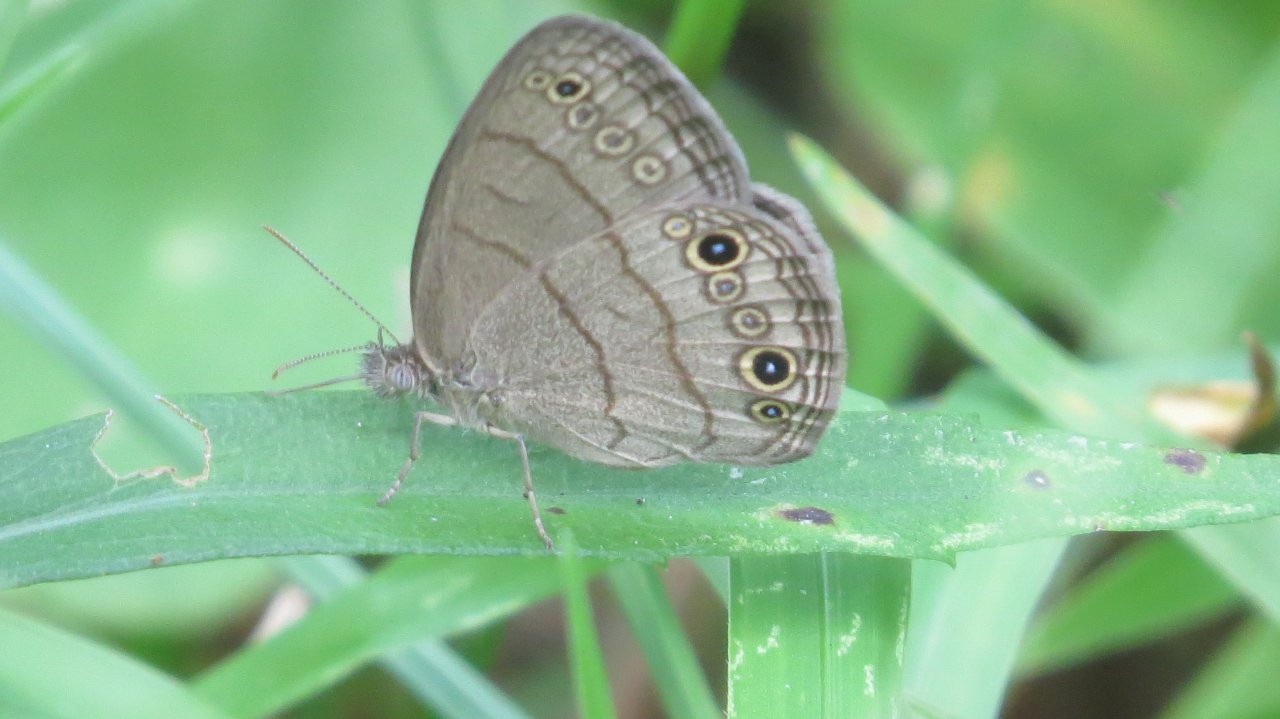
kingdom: Animalia
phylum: Arthropoda
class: Insecta
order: Lepidoptera
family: Nymphalidae
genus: Hermeuptychia
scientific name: Hermeuptychia hermes
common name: Carolina Satyr
